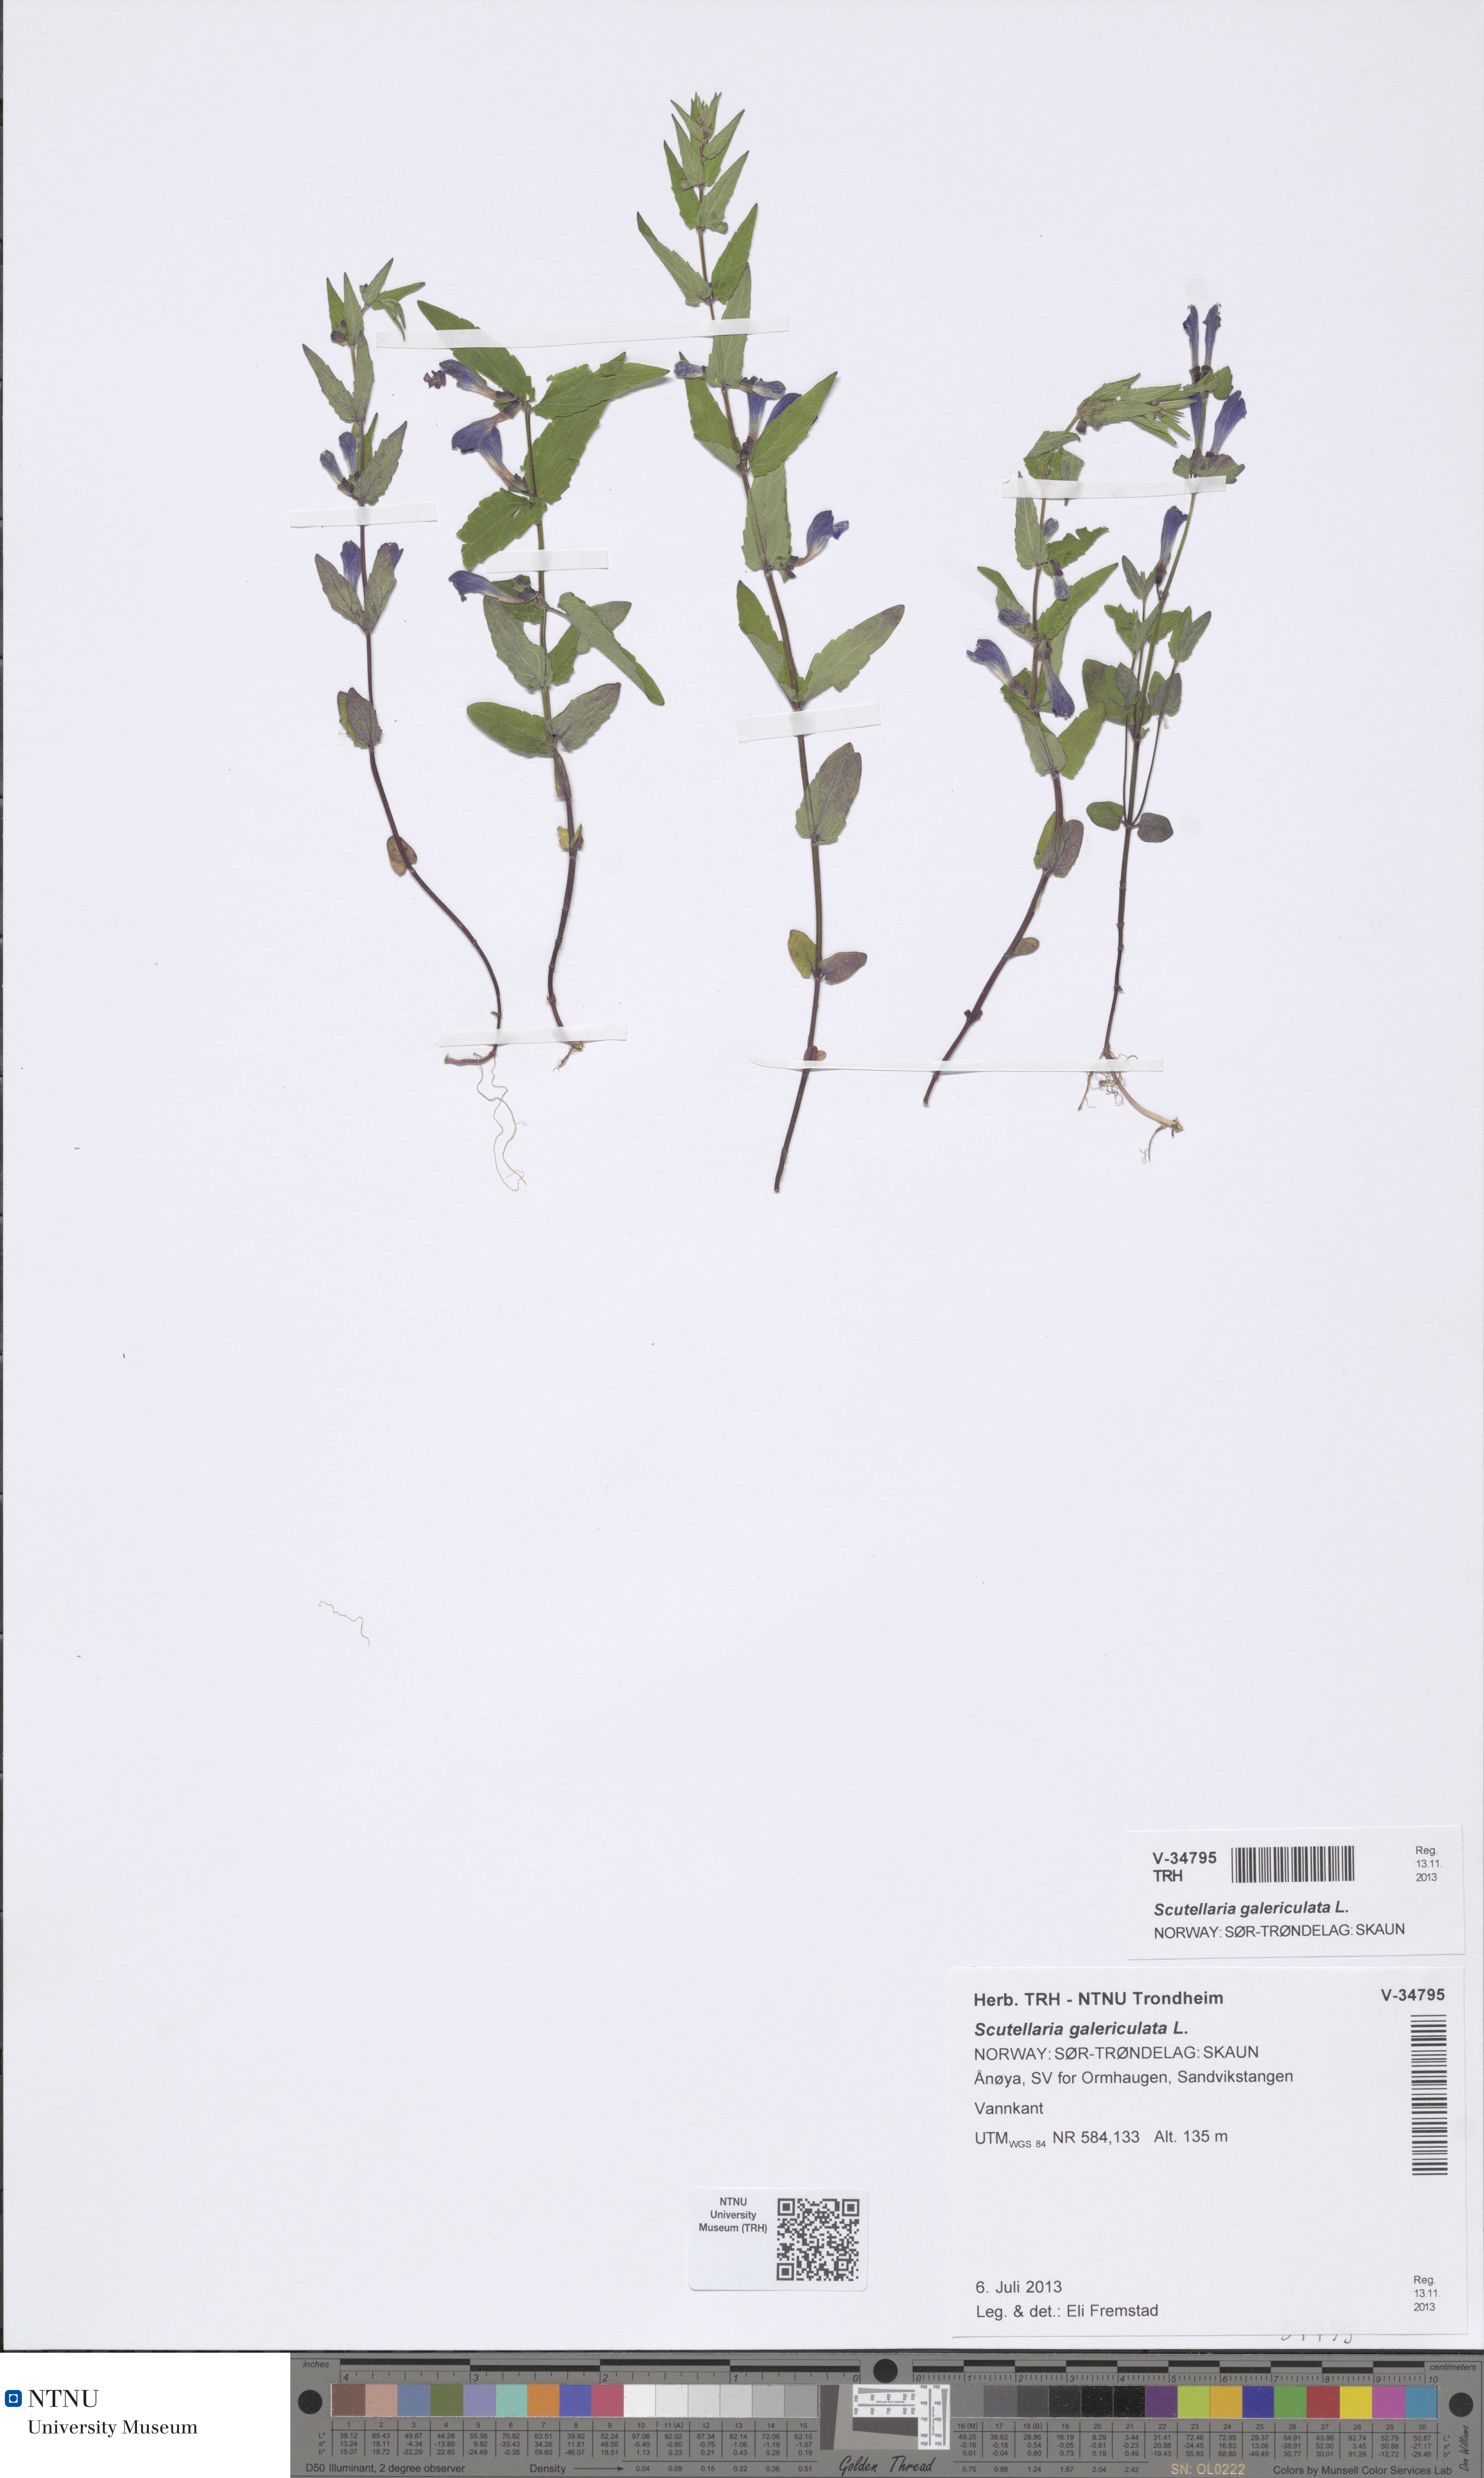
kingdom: Plantae
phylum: Tracheophyta
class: Magnoliopsida
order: Lamiales
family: Lamiaceae
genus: Scutellaria
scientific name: Scutellaria galericulata
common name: Skullcap
